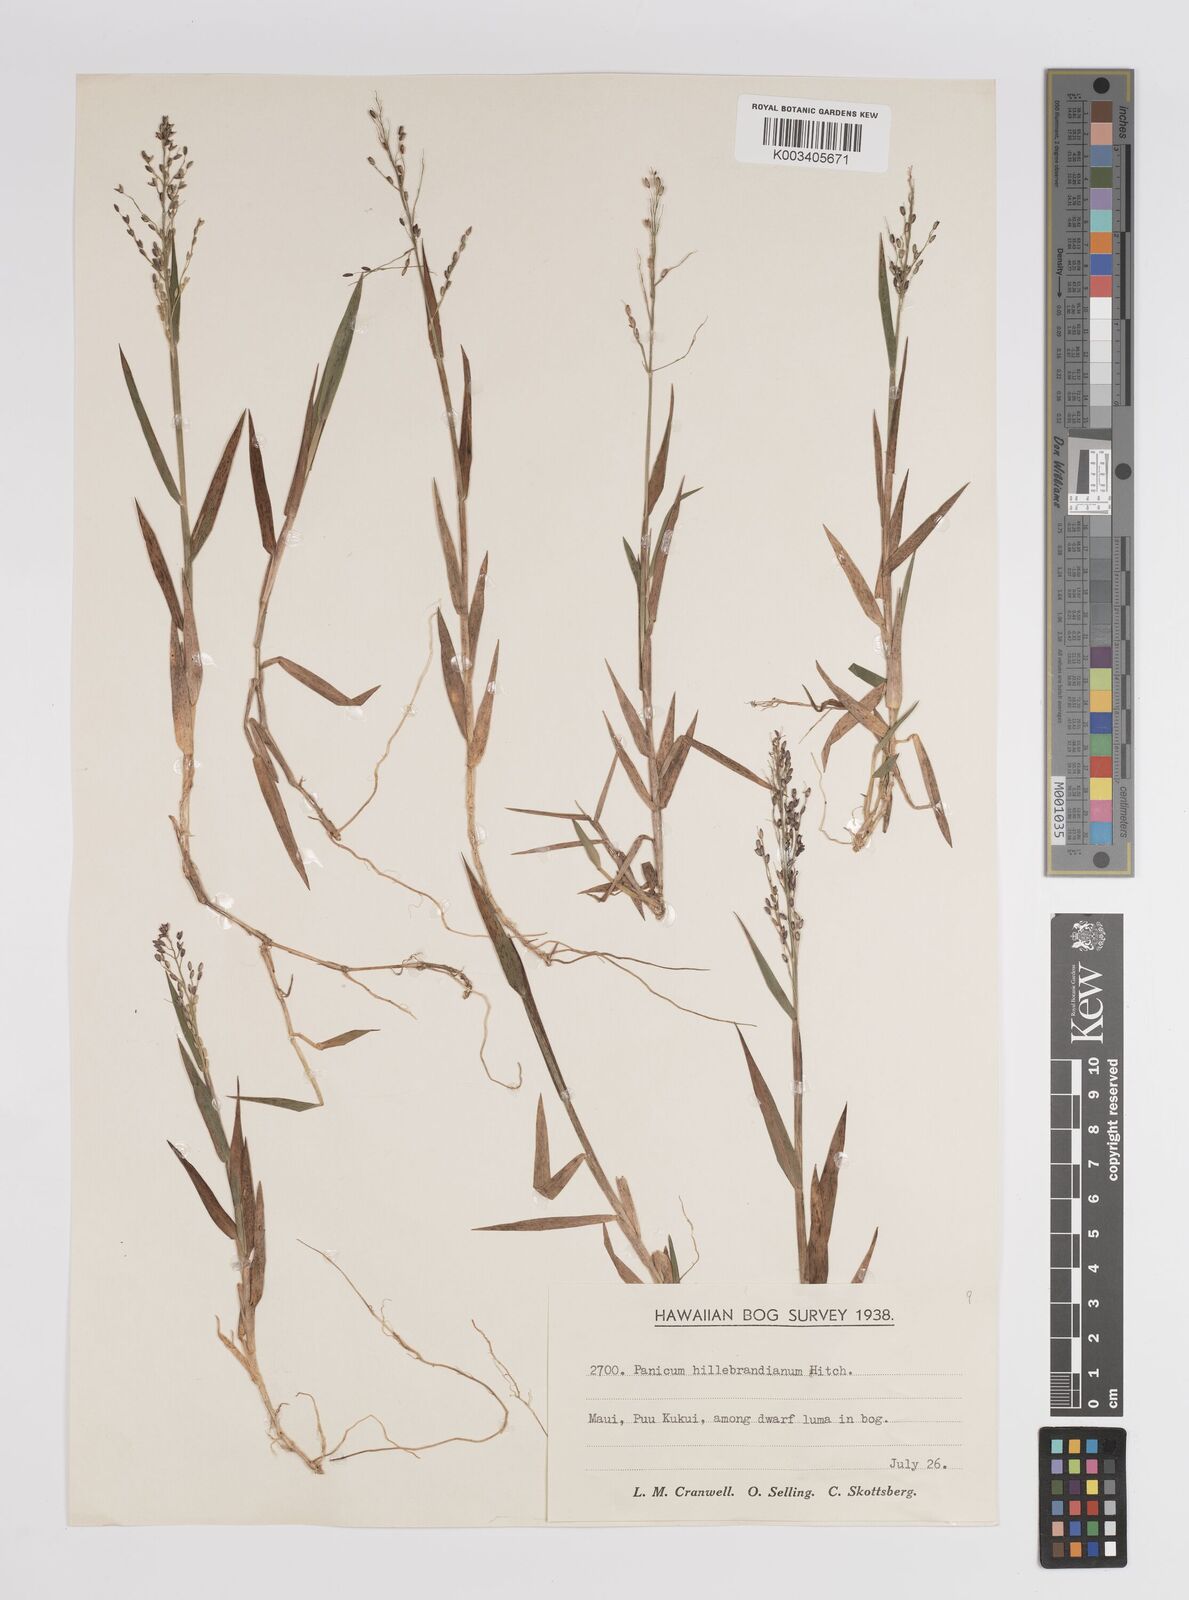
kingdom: Plantae
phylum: Tracheophyta
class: Liliopsida
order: Poales
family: Poaceae
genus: Dichanthelium
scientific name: Dichanthelium hillebrandianum
